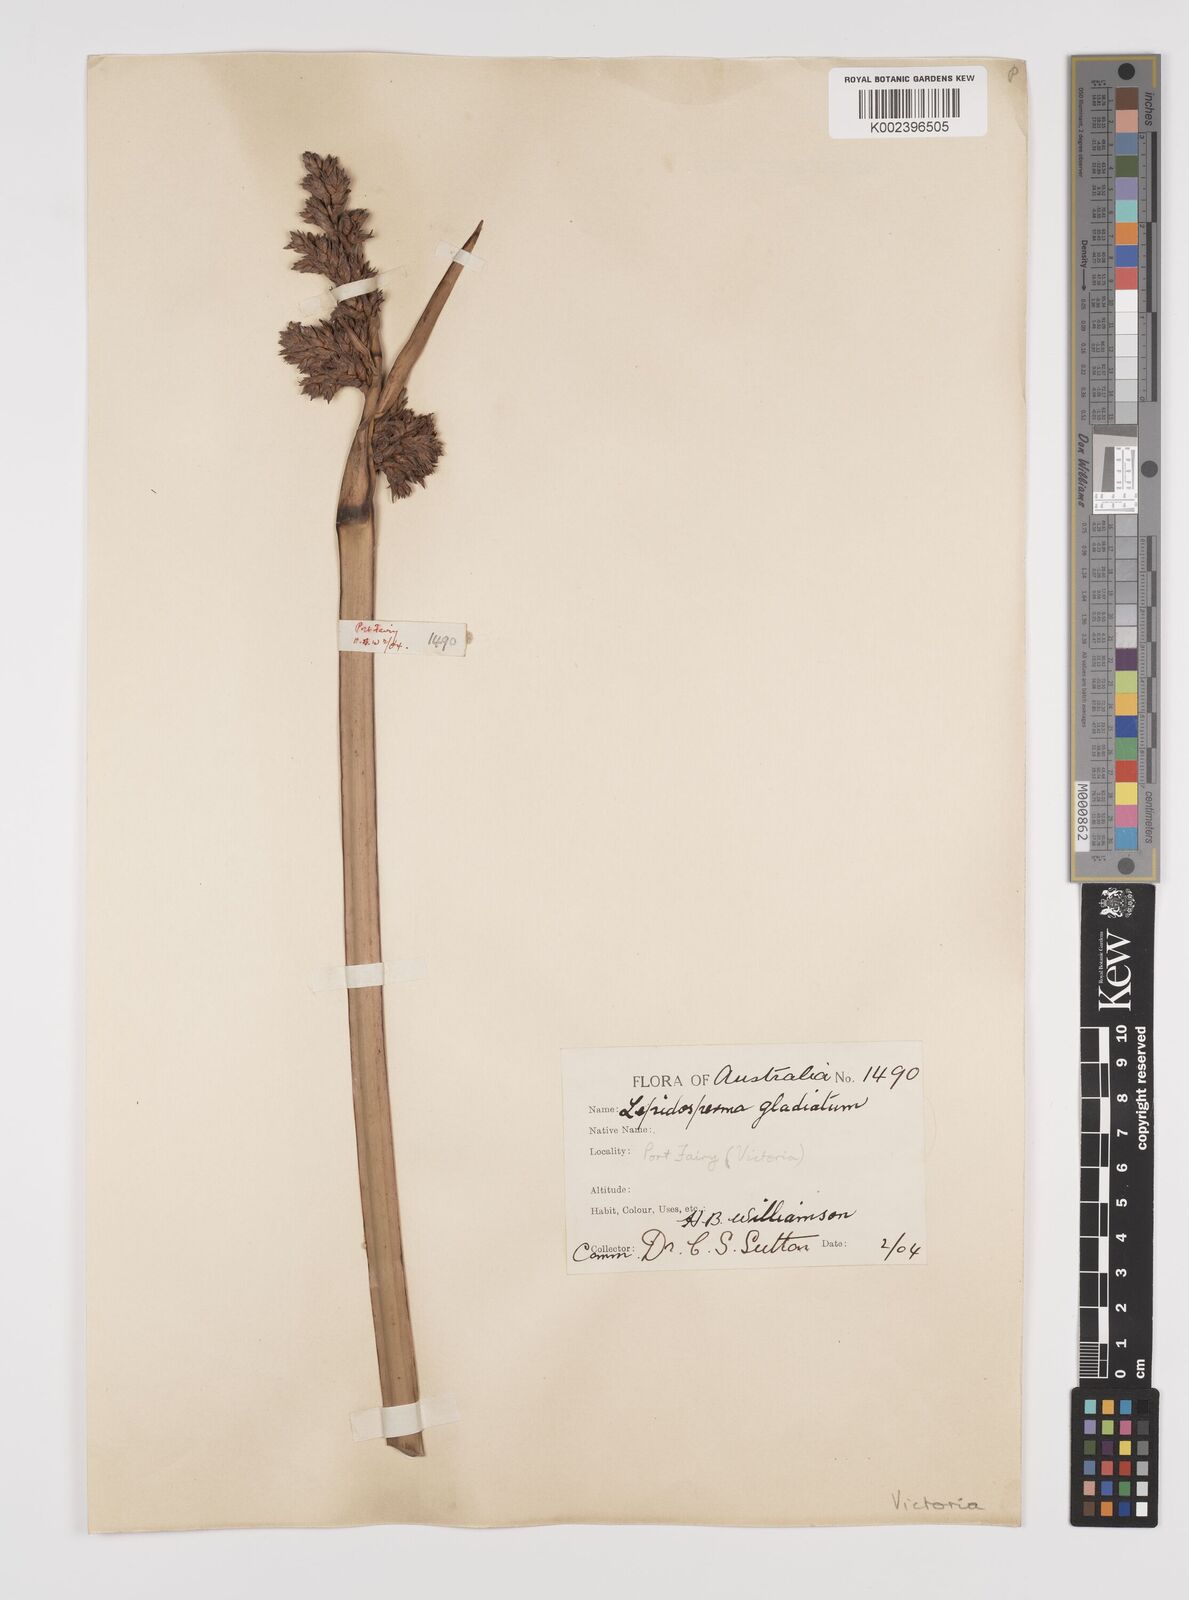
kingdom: Plantae
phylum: Tracheophyta
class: Liliopsida
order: Poales
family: Cyperaceae
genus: Lepidosperma
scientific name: Lepidosperma gladiatum
